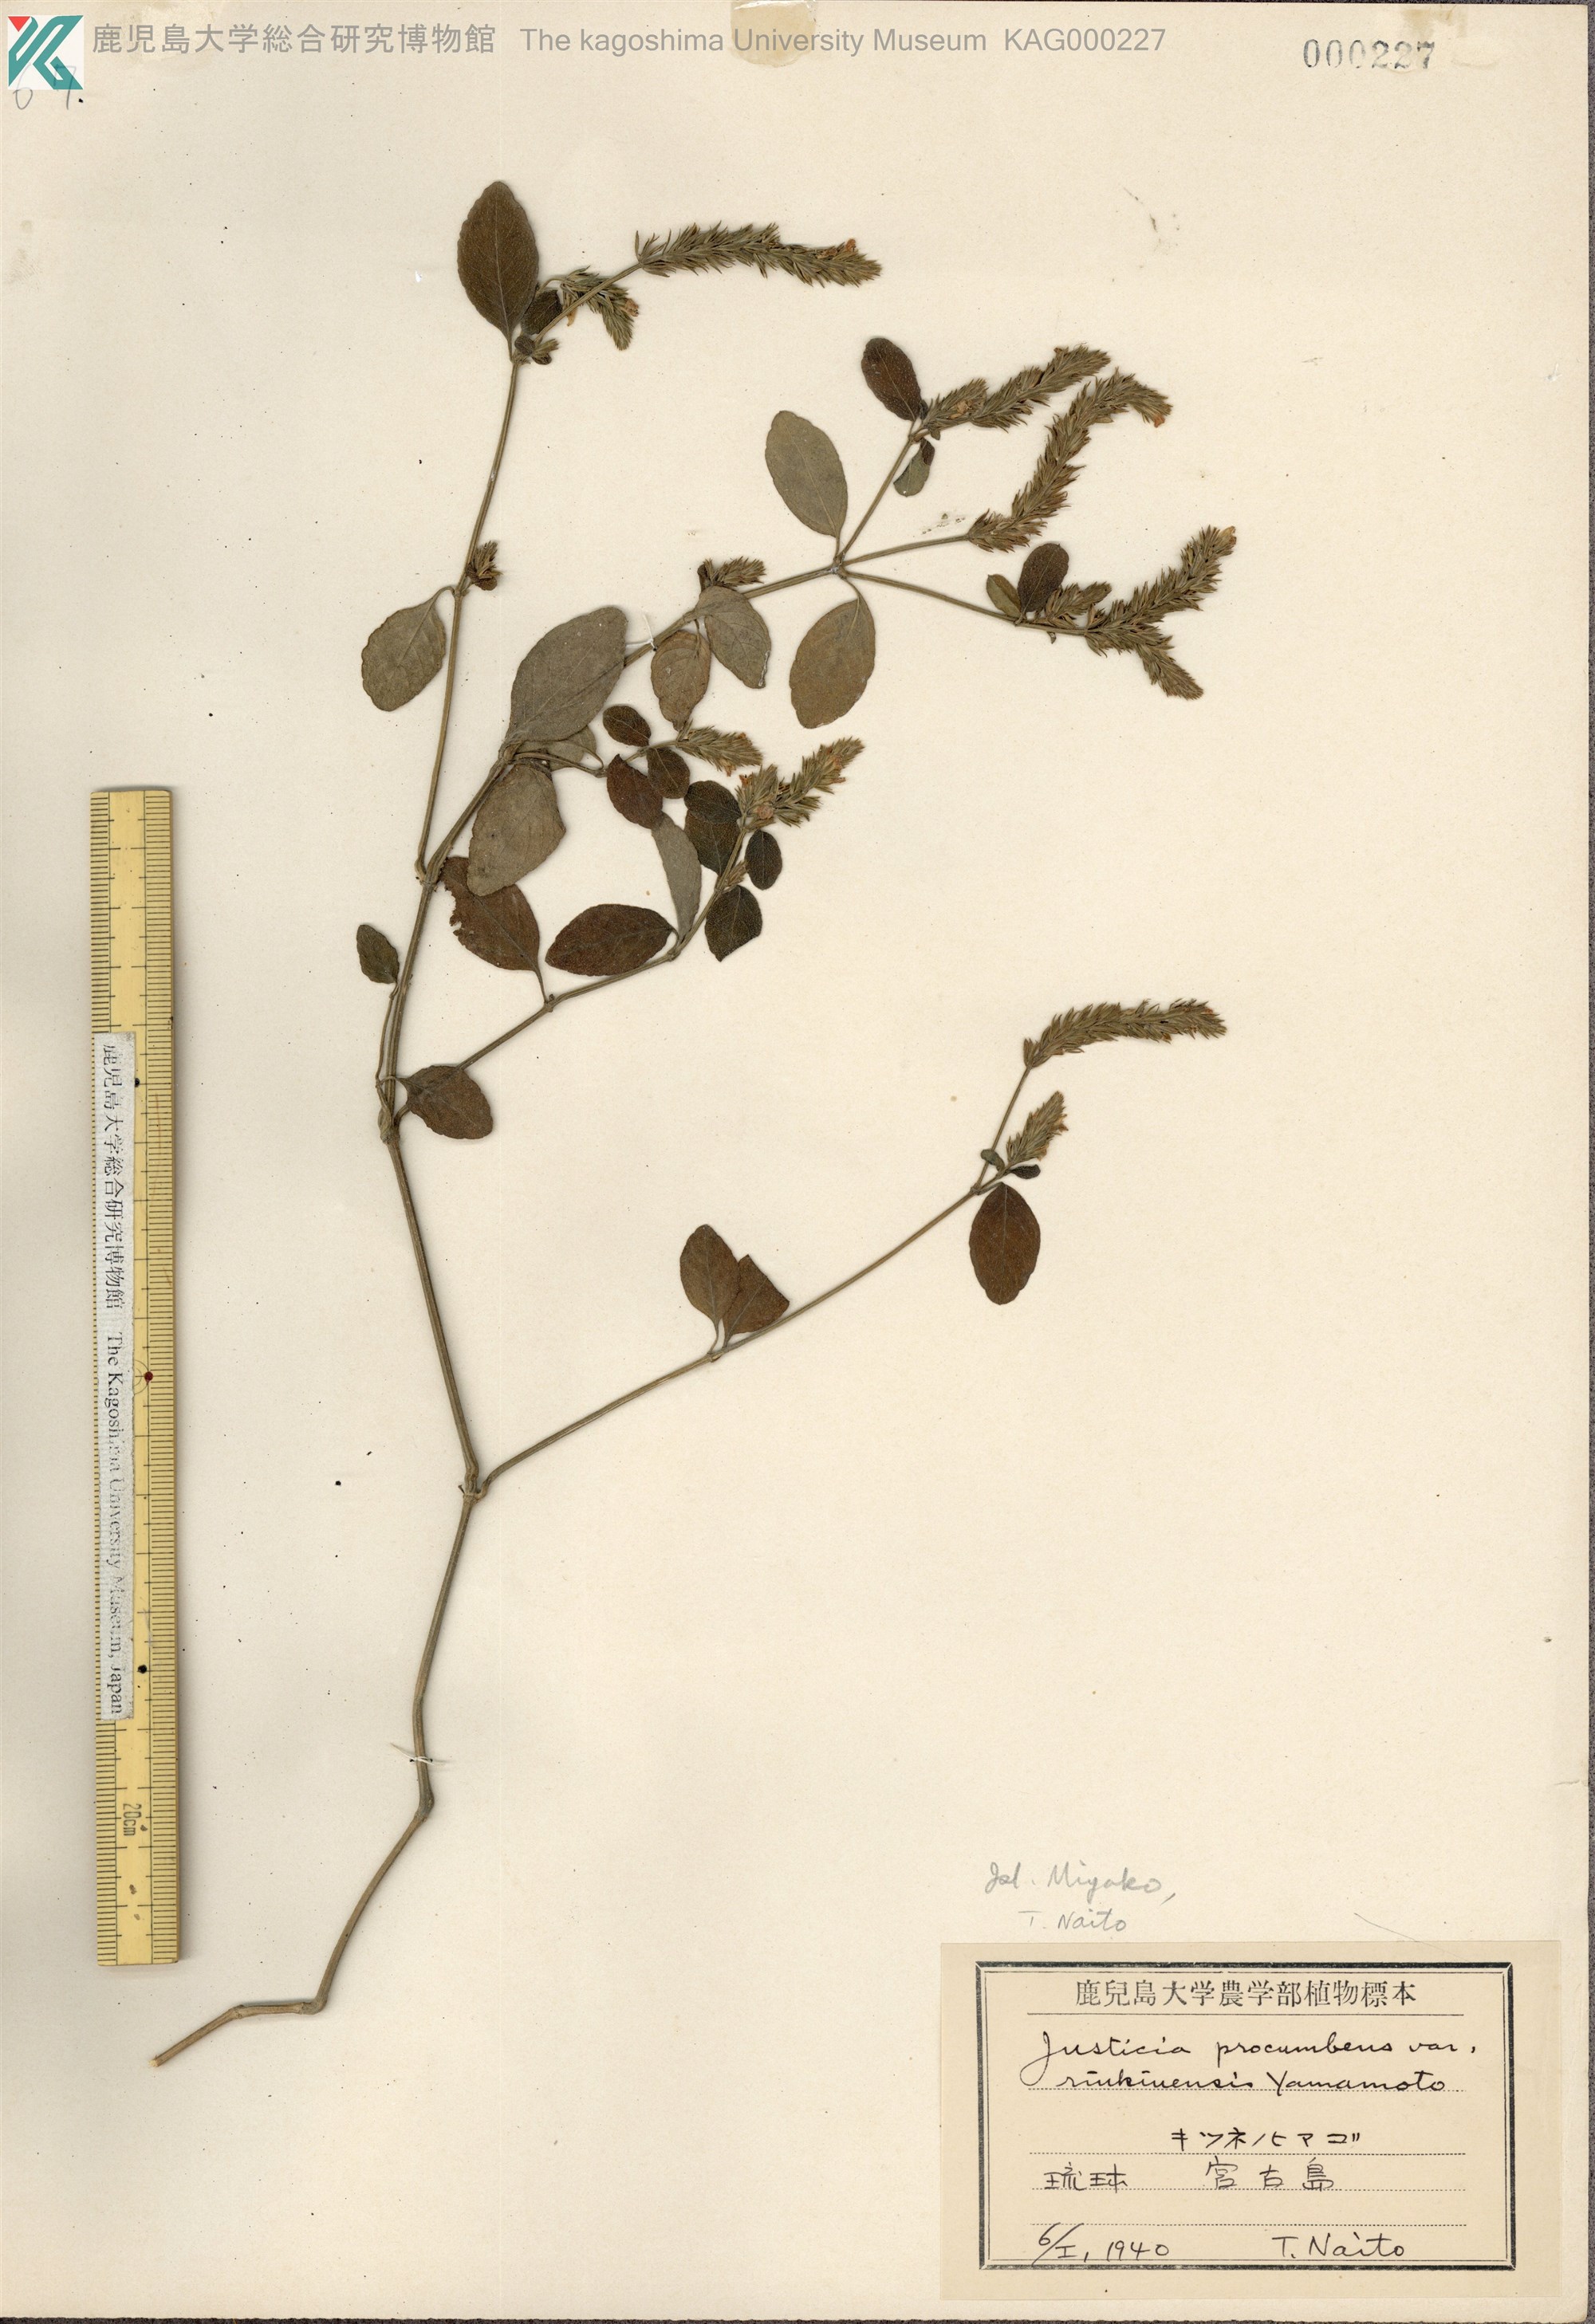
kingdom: Plantae
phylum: Tracheophyta
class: Magnoliopsida
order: Lamiales
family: Acanthaceae
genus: Rostellularia
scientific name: Rostellularia procumbens
